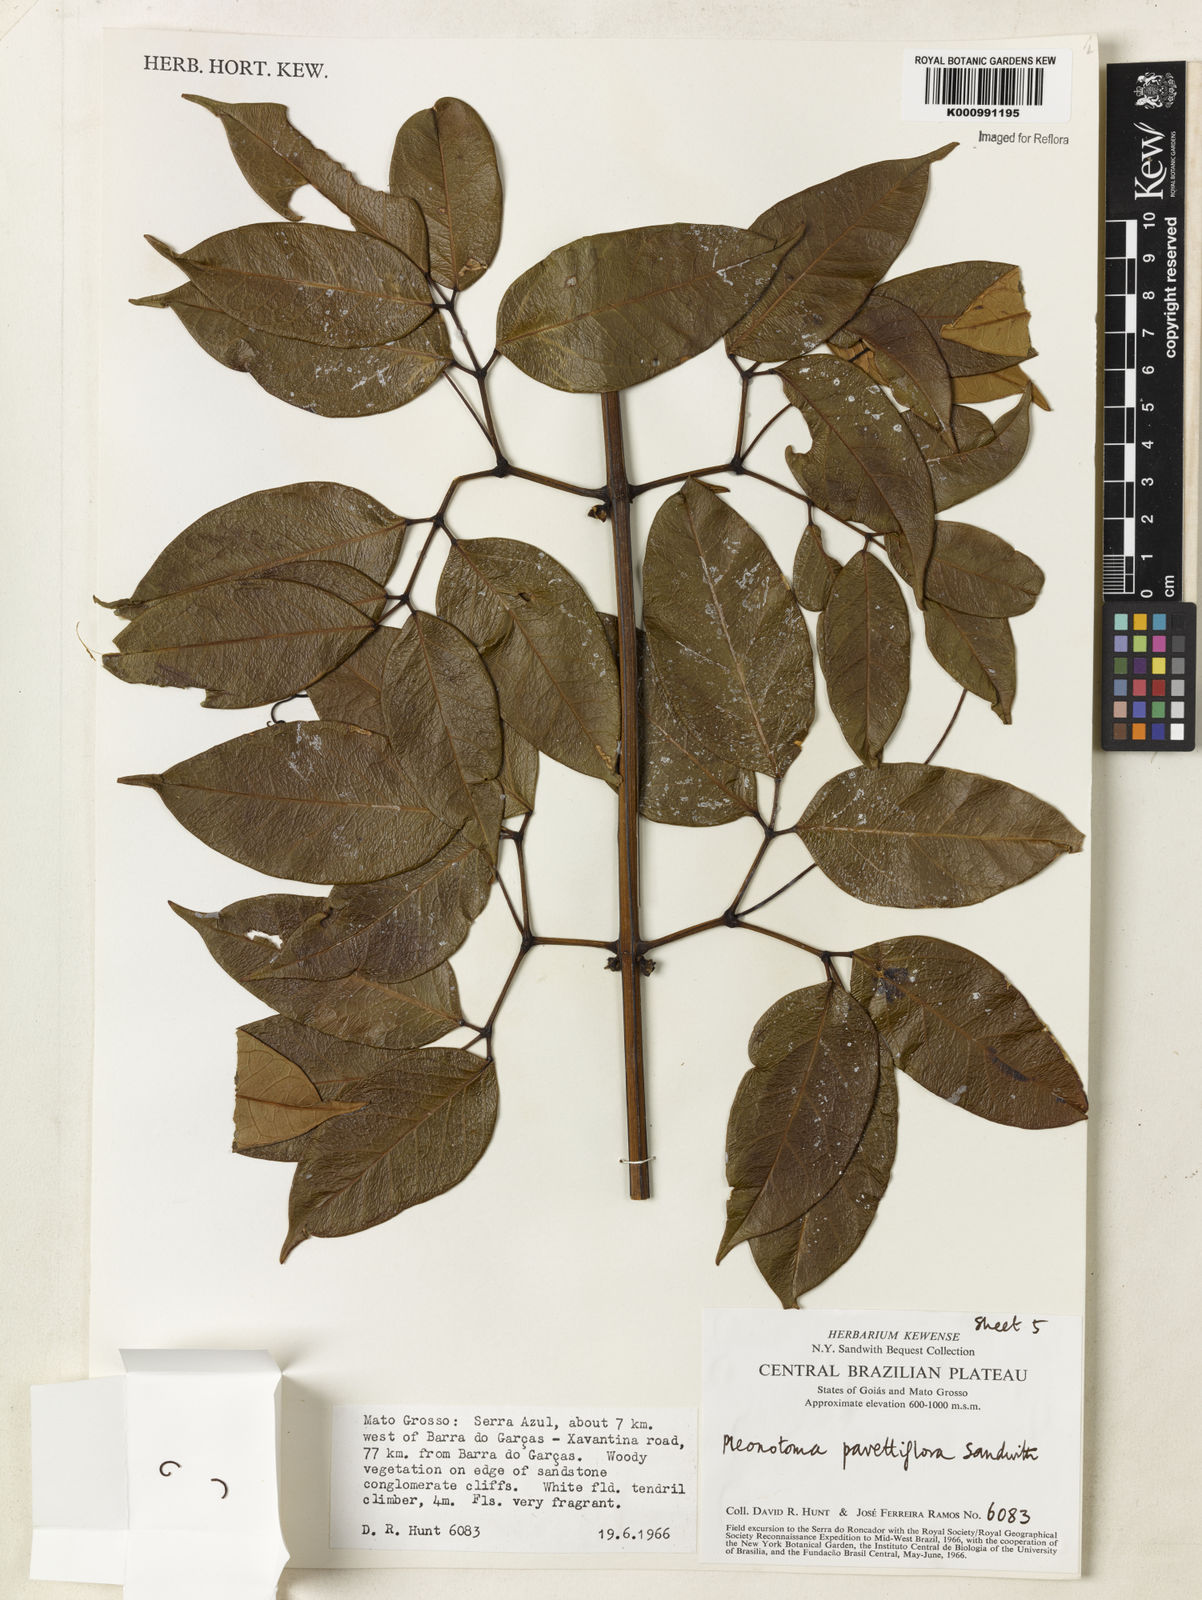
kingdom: Plantae
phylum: Tracheophyta
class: Magnoliopsida
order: Lamiales
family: Bignoniaceae
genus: Pleonotoma
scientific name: Pleonotoma pavettiflora
